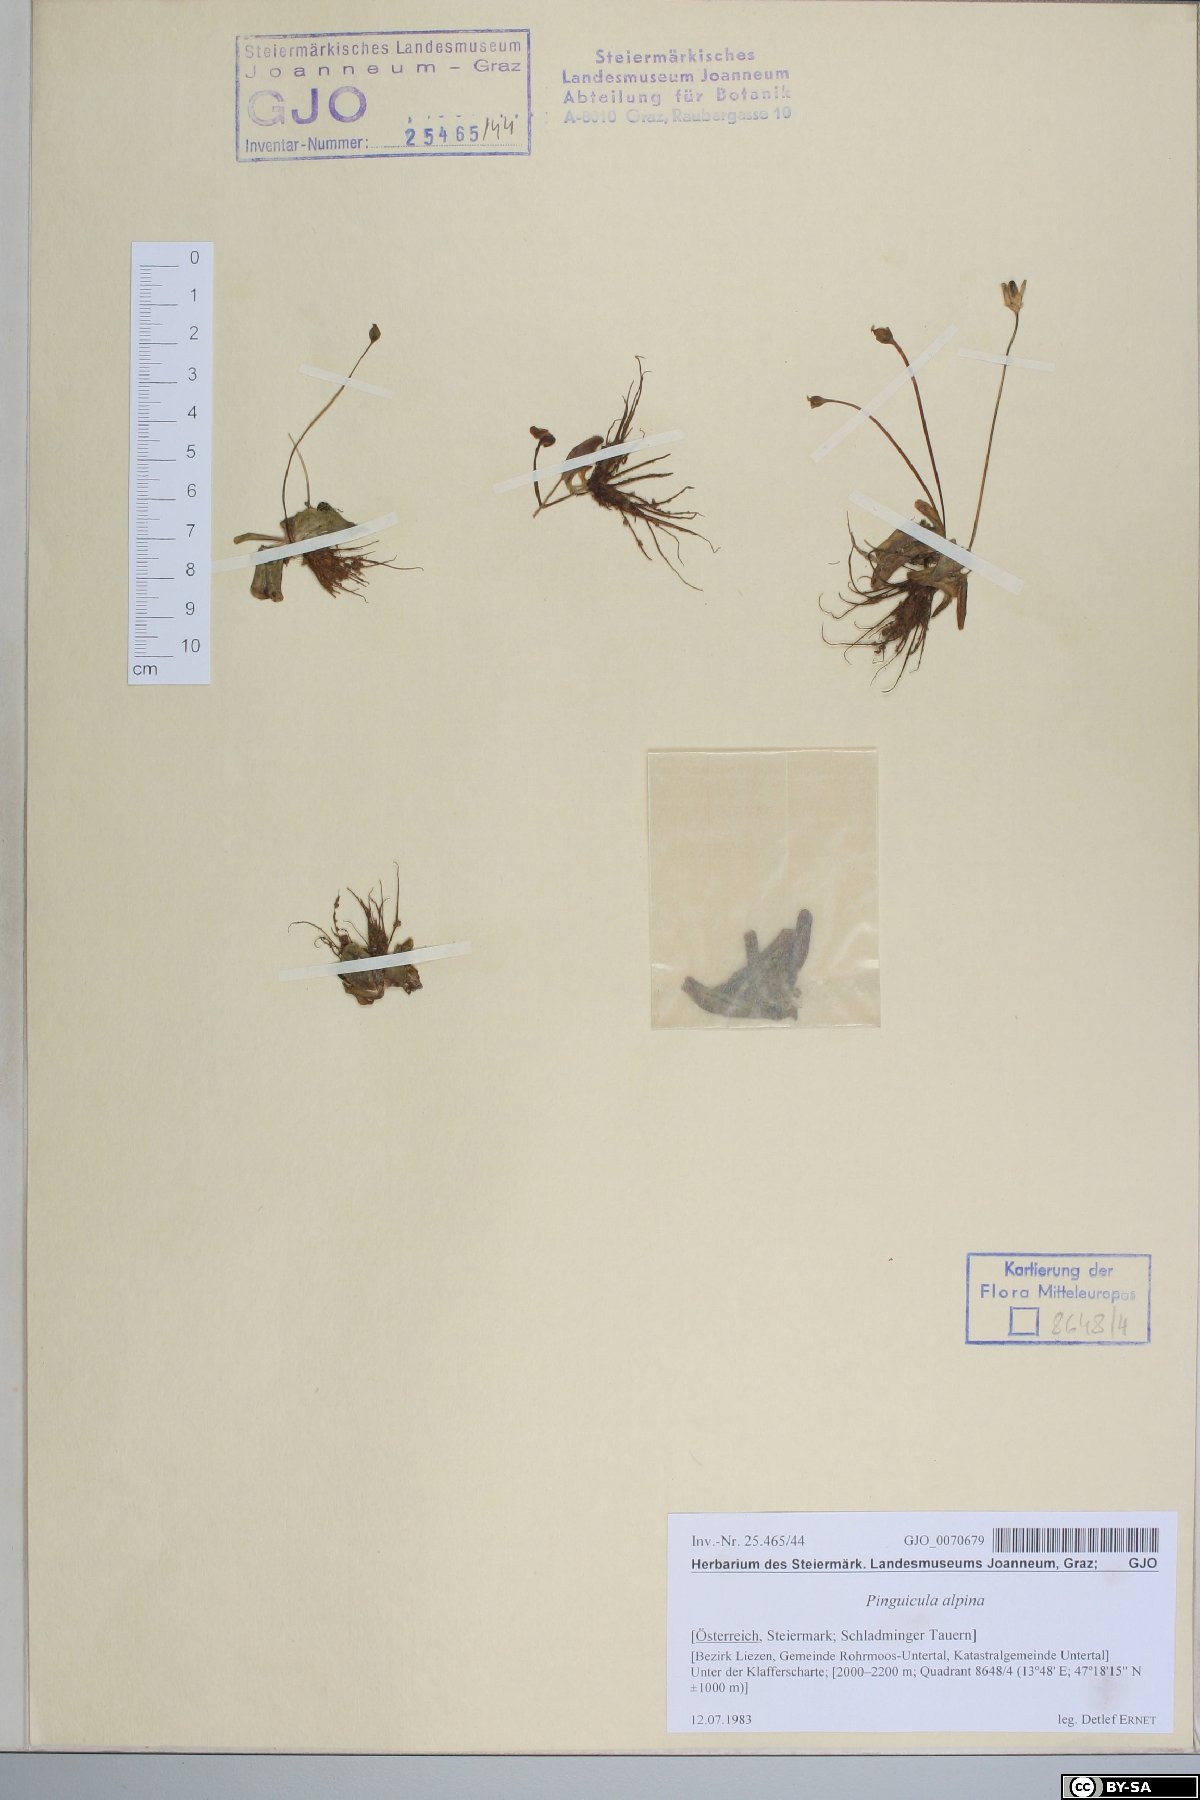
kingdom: Plantae
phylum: Tracheophyta
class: Magnoliopsida
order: Lamiales
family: Lentibulariaceae
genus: Pinguicula
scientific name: Pinguicula alpina
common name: Alpine butterwort
